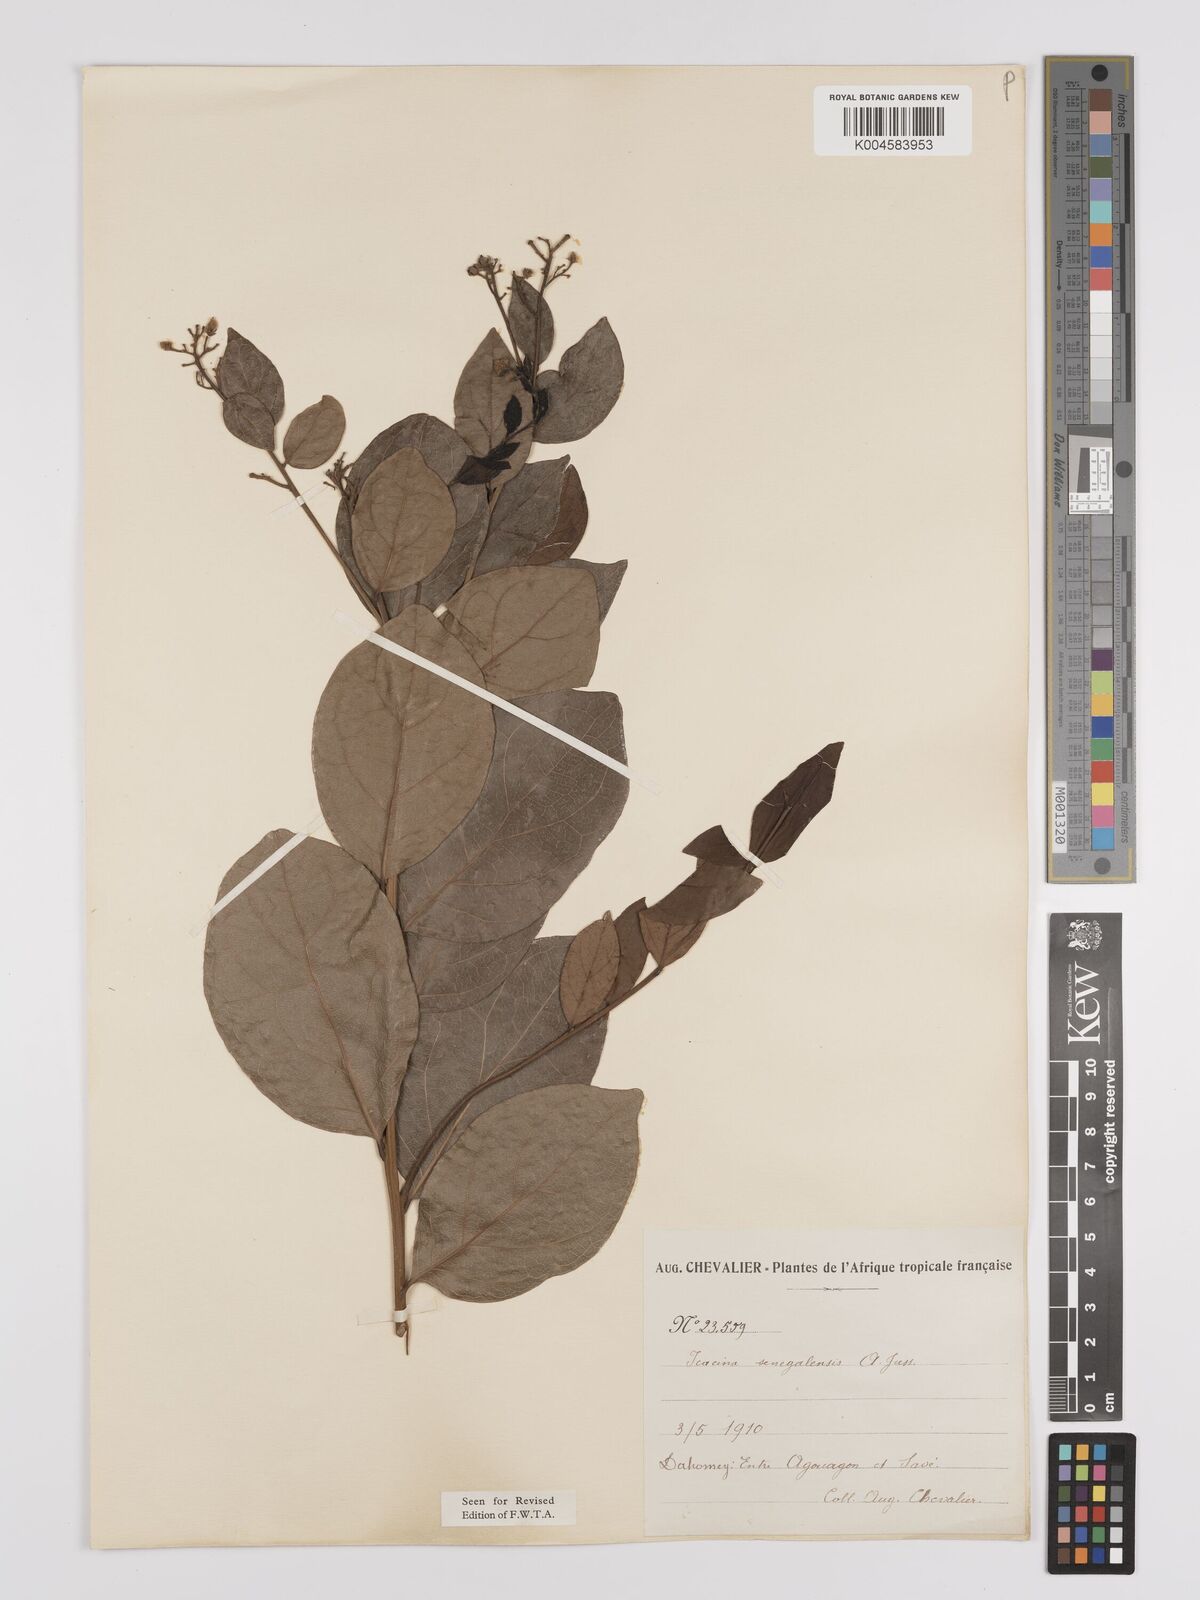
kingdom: Plantae
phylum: Tracheophyta
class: Magnoliopsida
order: Icacinales
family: Icacinaceae
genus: Icacina
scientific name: Icacina oliviformis
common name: False yam
